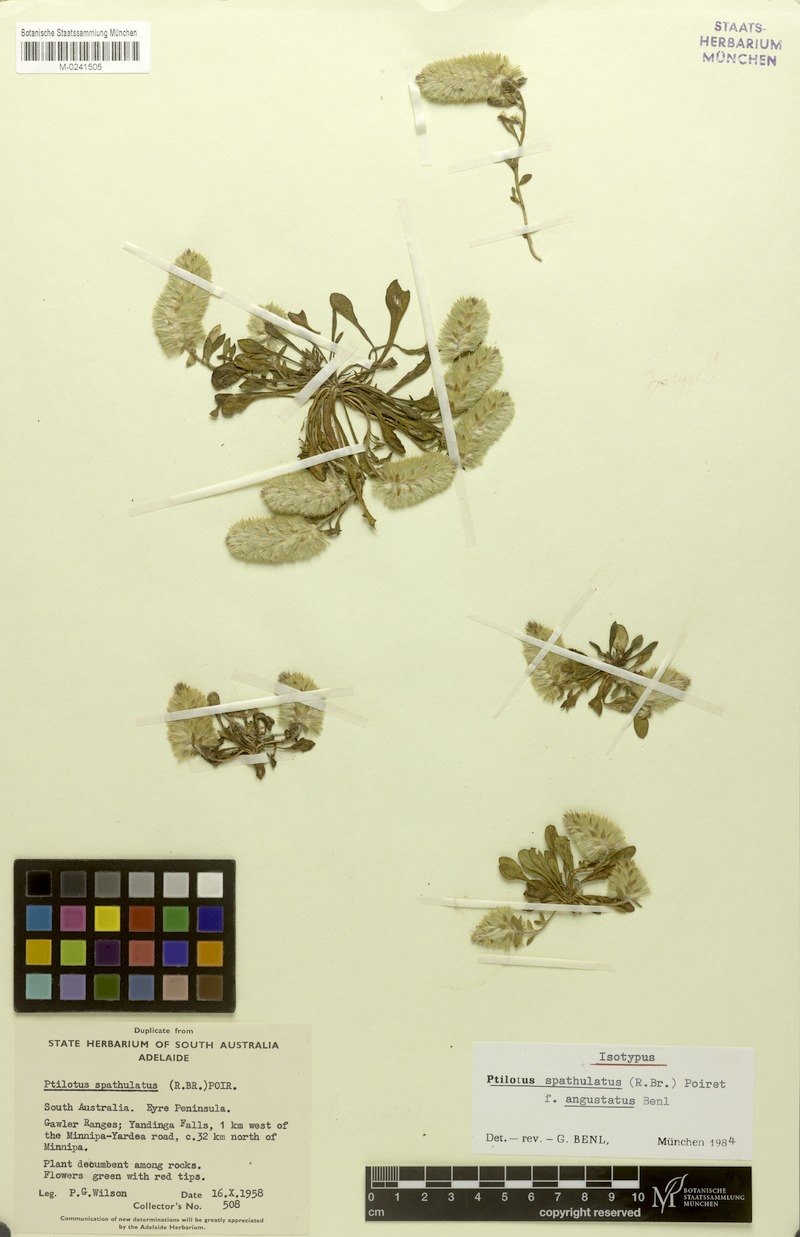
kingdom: Plantae
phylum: Tracheophyta
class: Magnoliopsida
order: Caryophyllales
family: Amaranthaceae
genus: Ptilotus
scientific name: Ptilotus spathulatus
